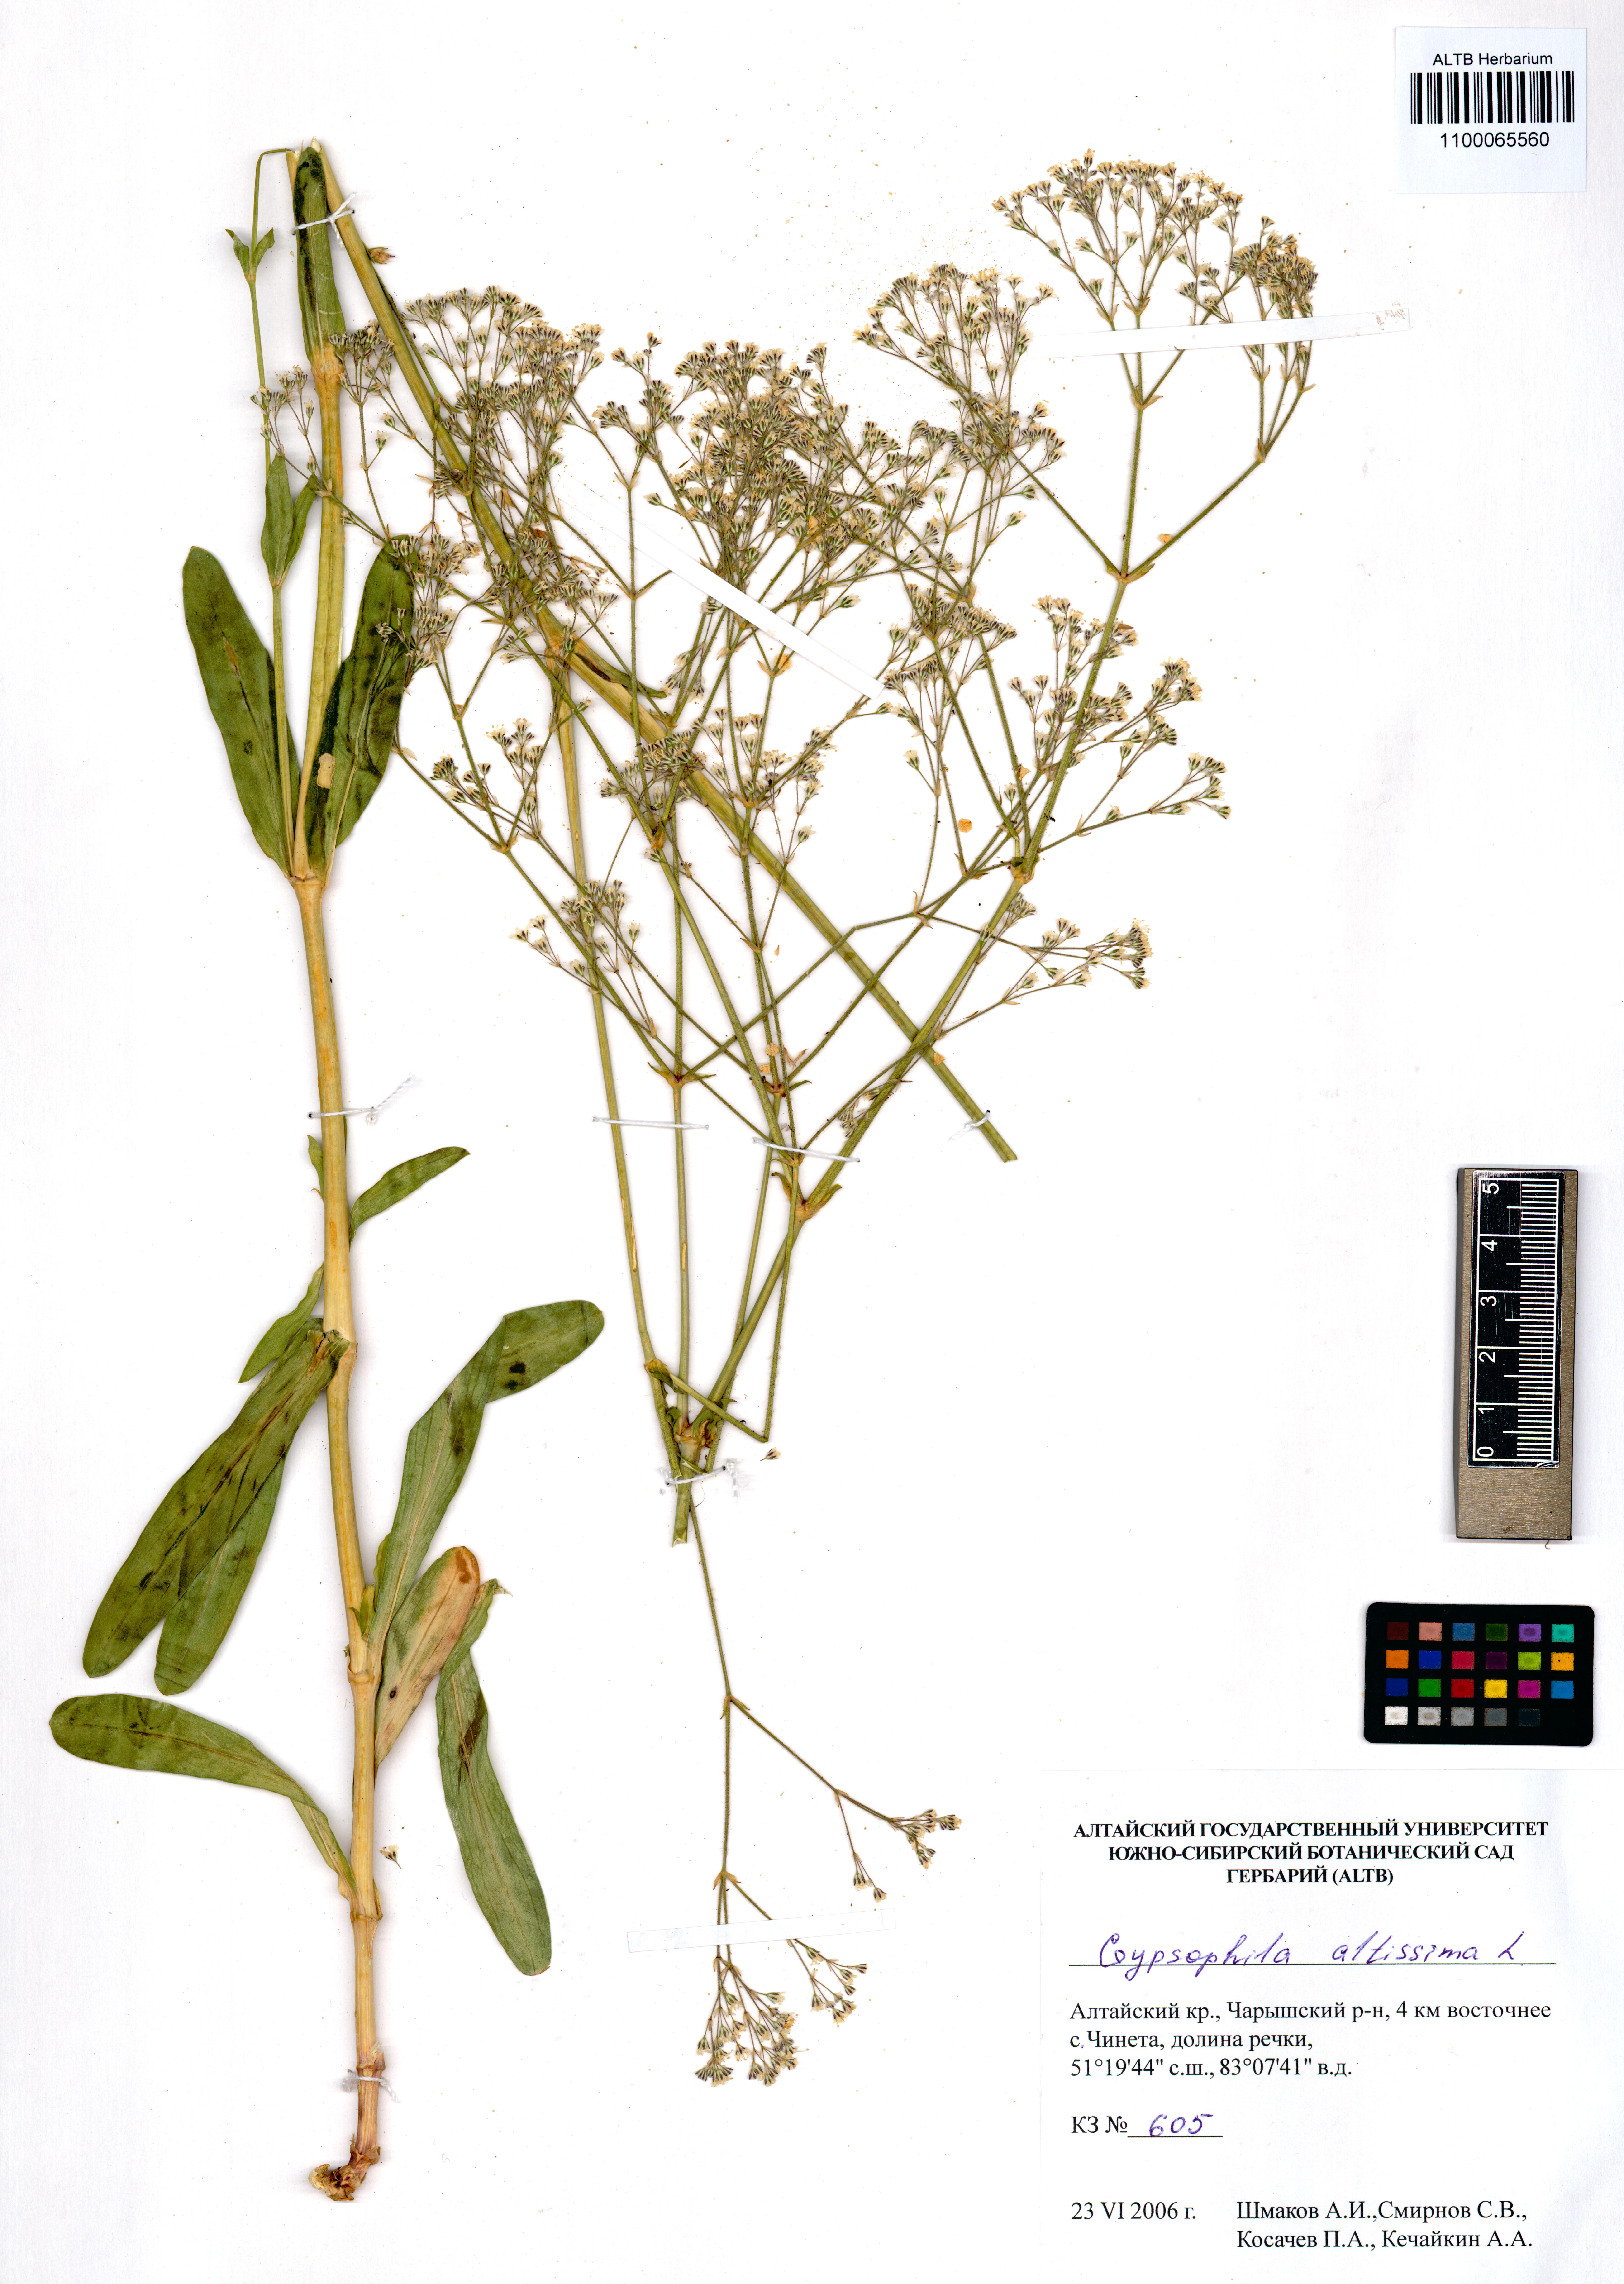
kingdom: Plantae
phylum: Tracheophyta
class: Magnoliopsida
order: Caryophyllales
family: Caryophyllaceae
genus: Gypsophila
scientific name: Gypsophila altissima
